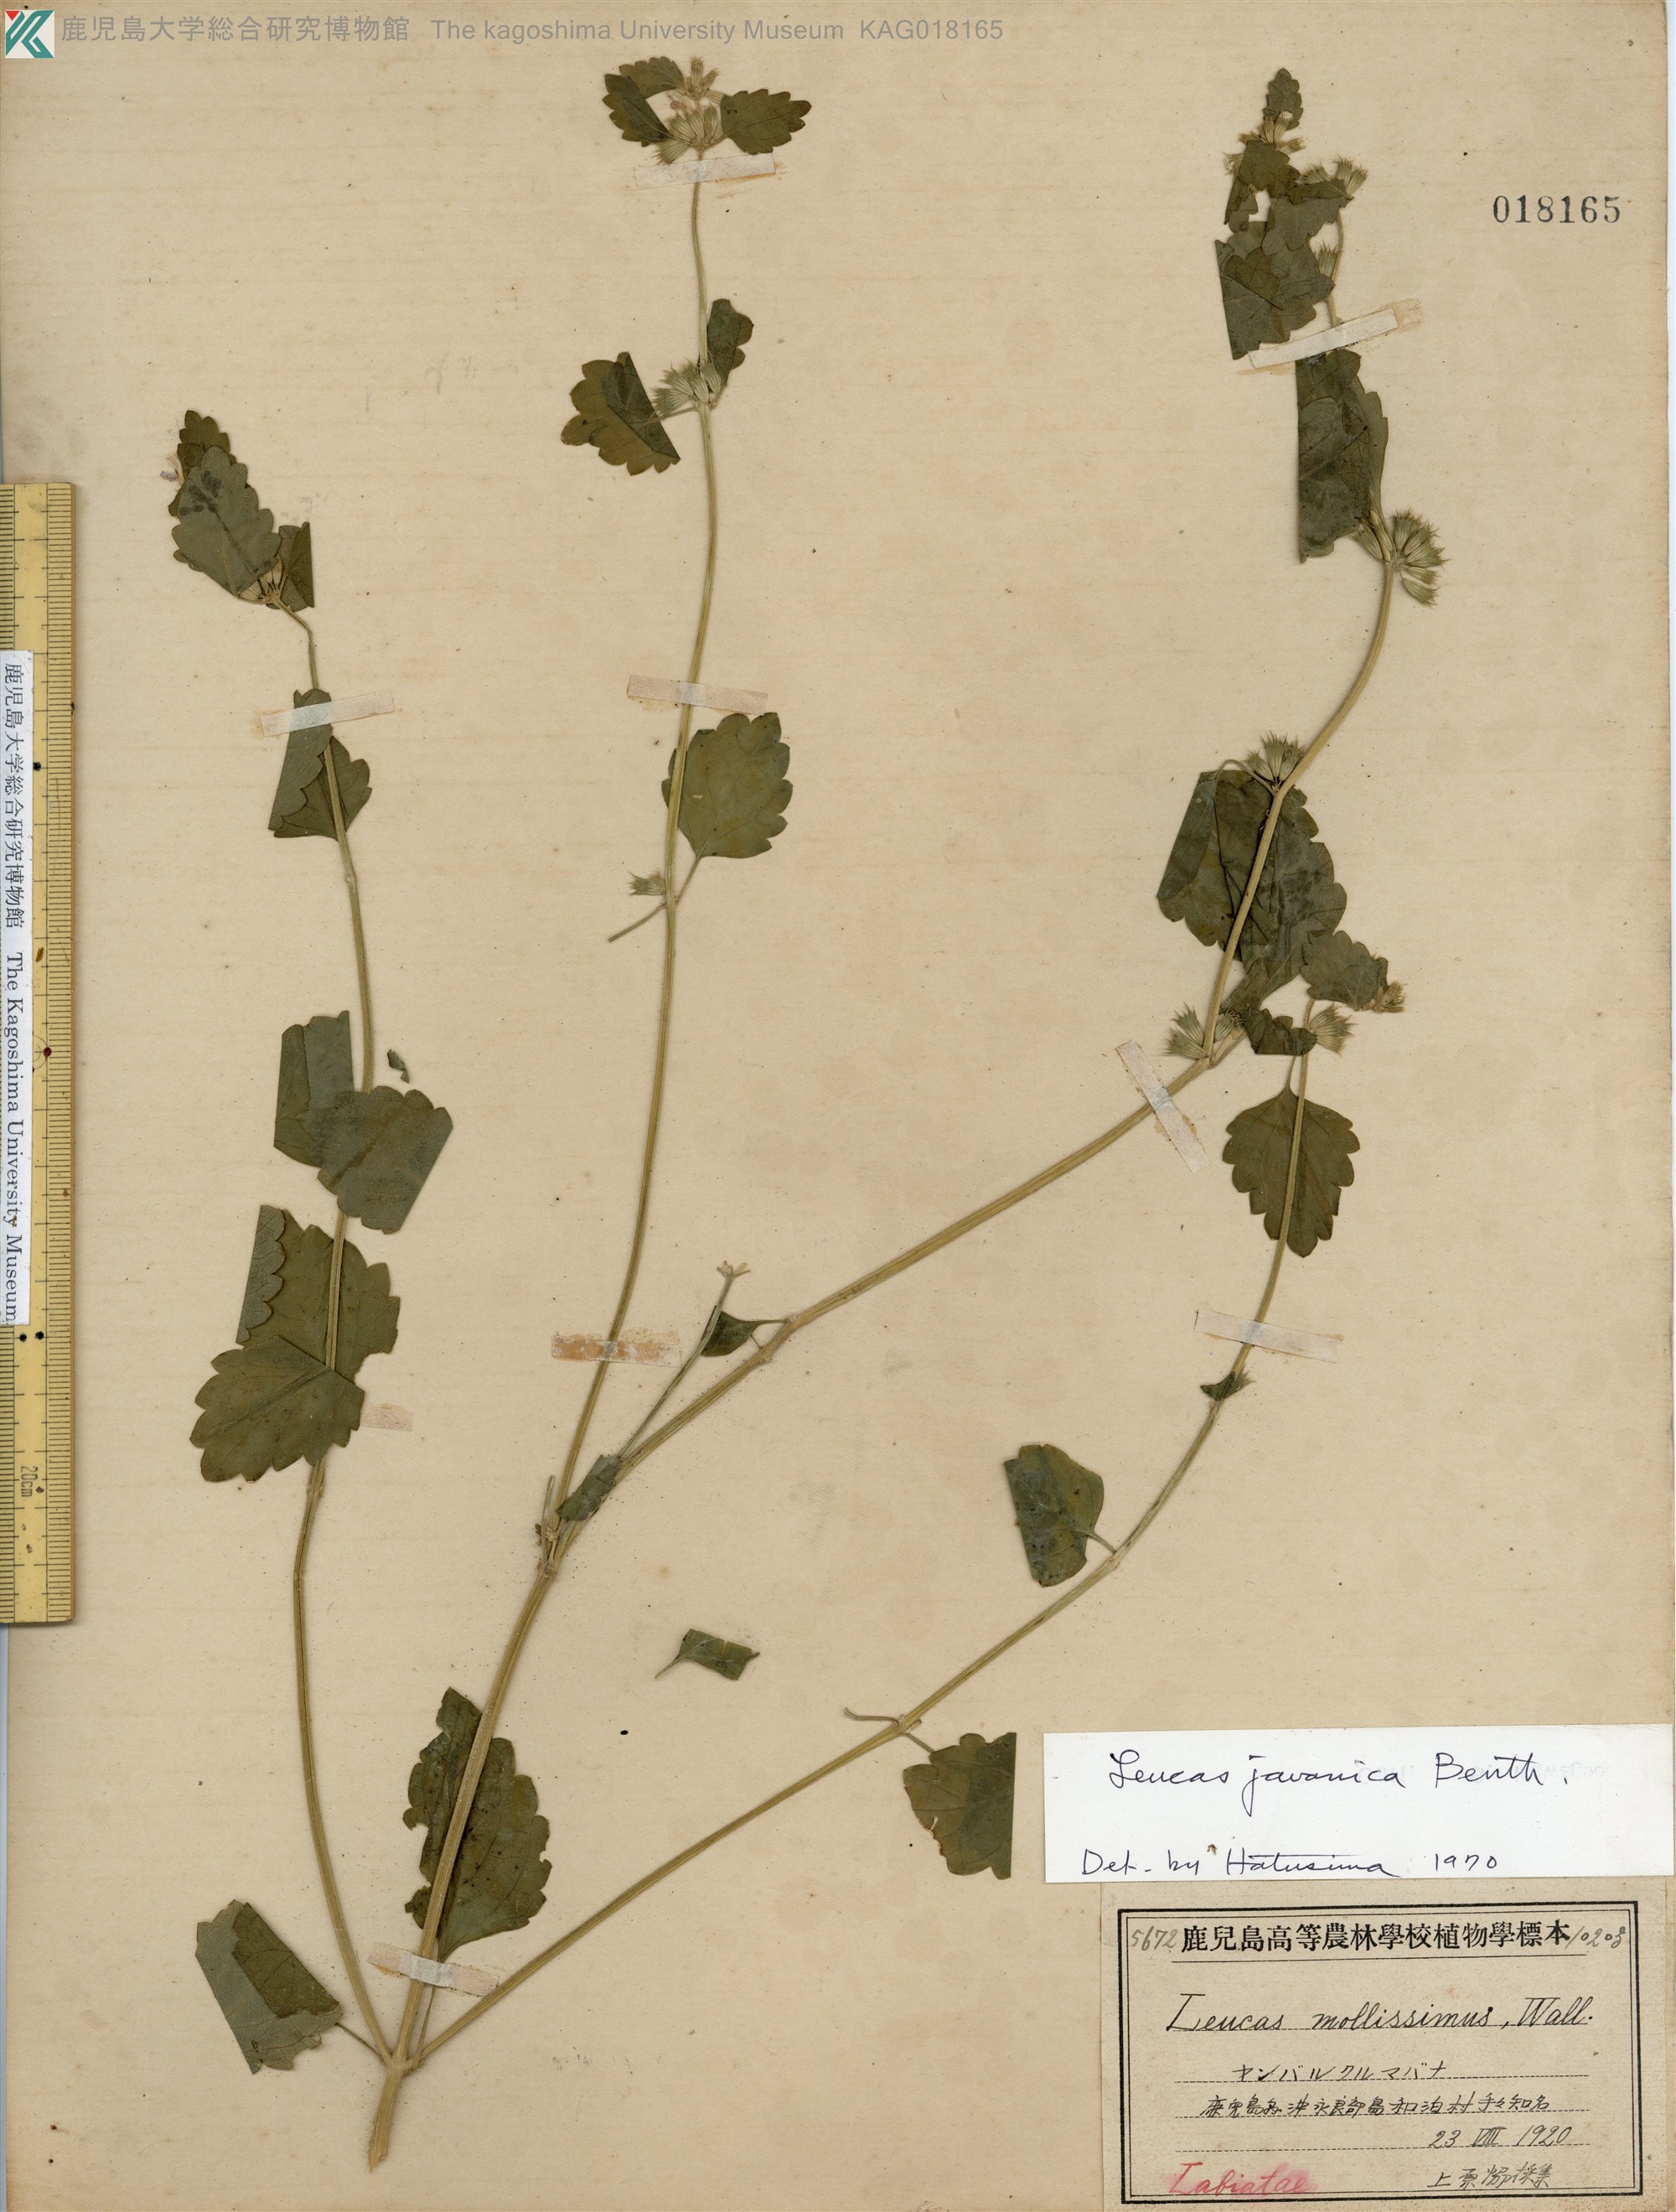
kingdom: Plantae
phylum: Tracheophyta
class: Magnoliopsida
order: Lamiales
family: Lamiaceae
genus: Leucas
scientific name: Leucas chinensis
